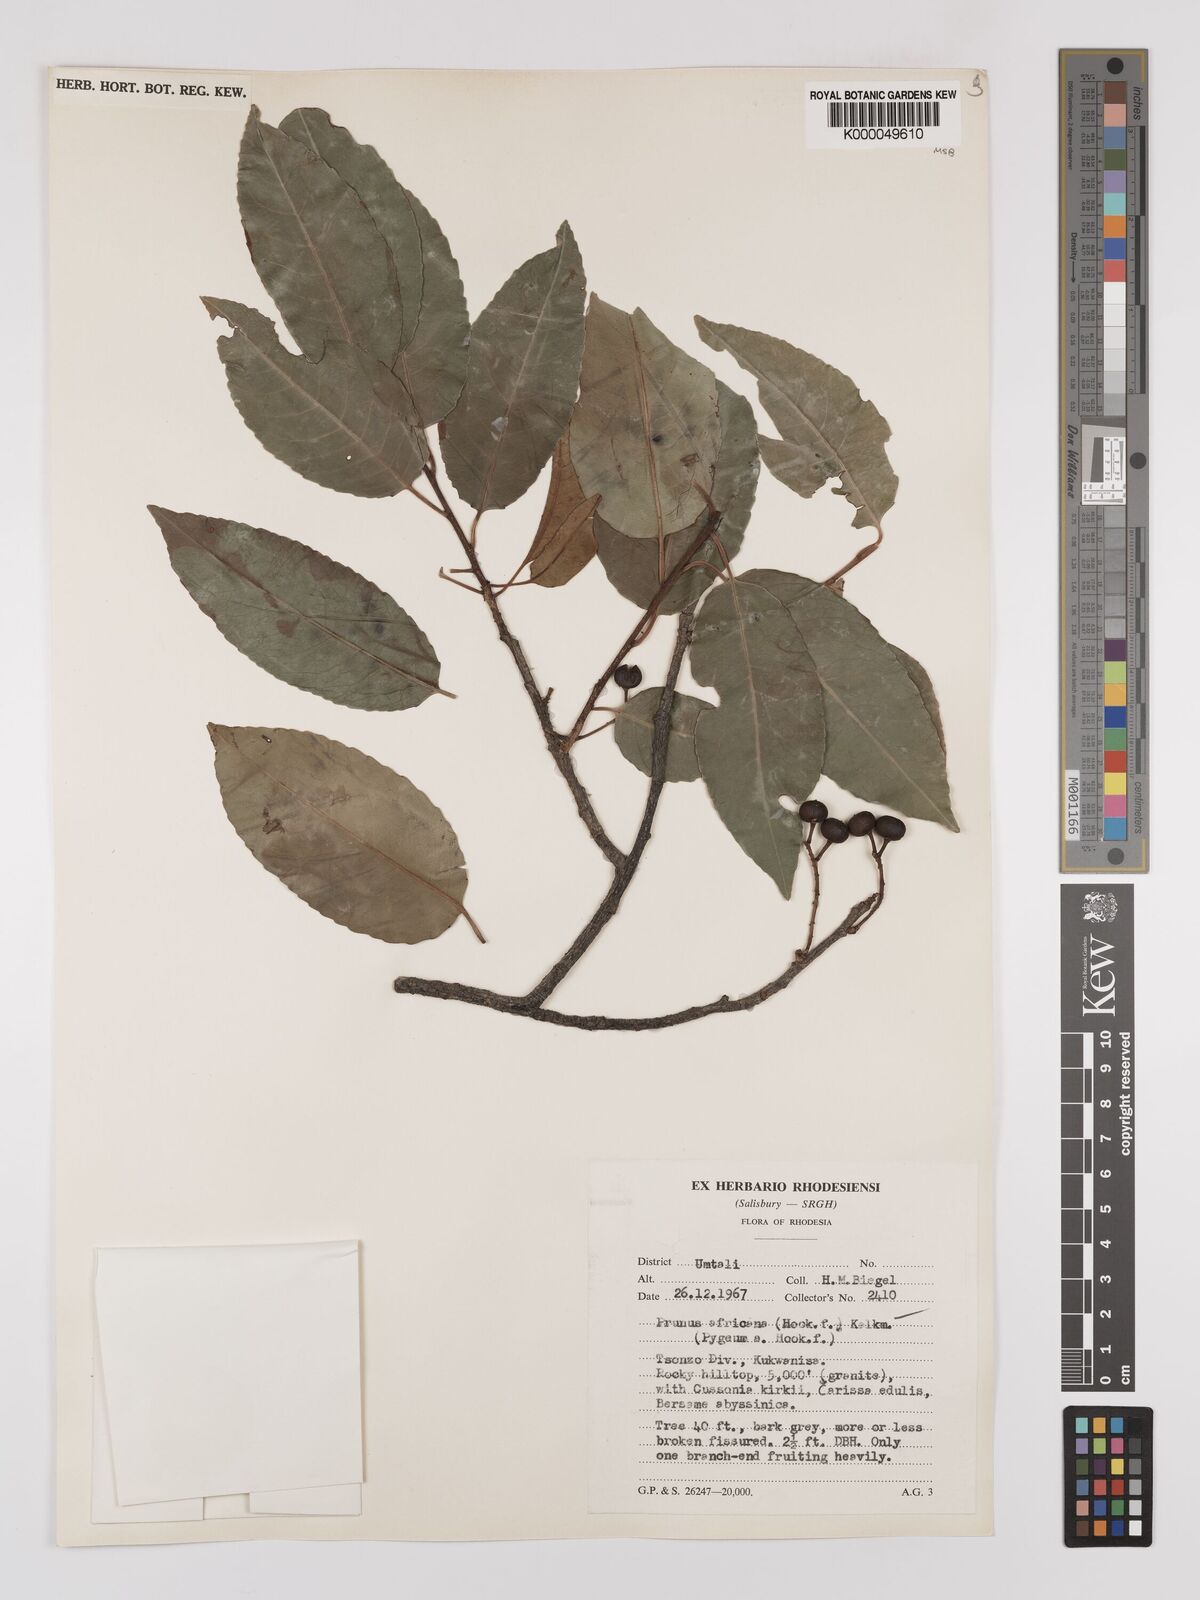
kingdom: Plantae
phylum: Tracheophyta
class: Magnoliopsida
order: Rosales
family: Rosaceae
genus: Prunus
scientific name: Prunus africana
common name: African cherry
